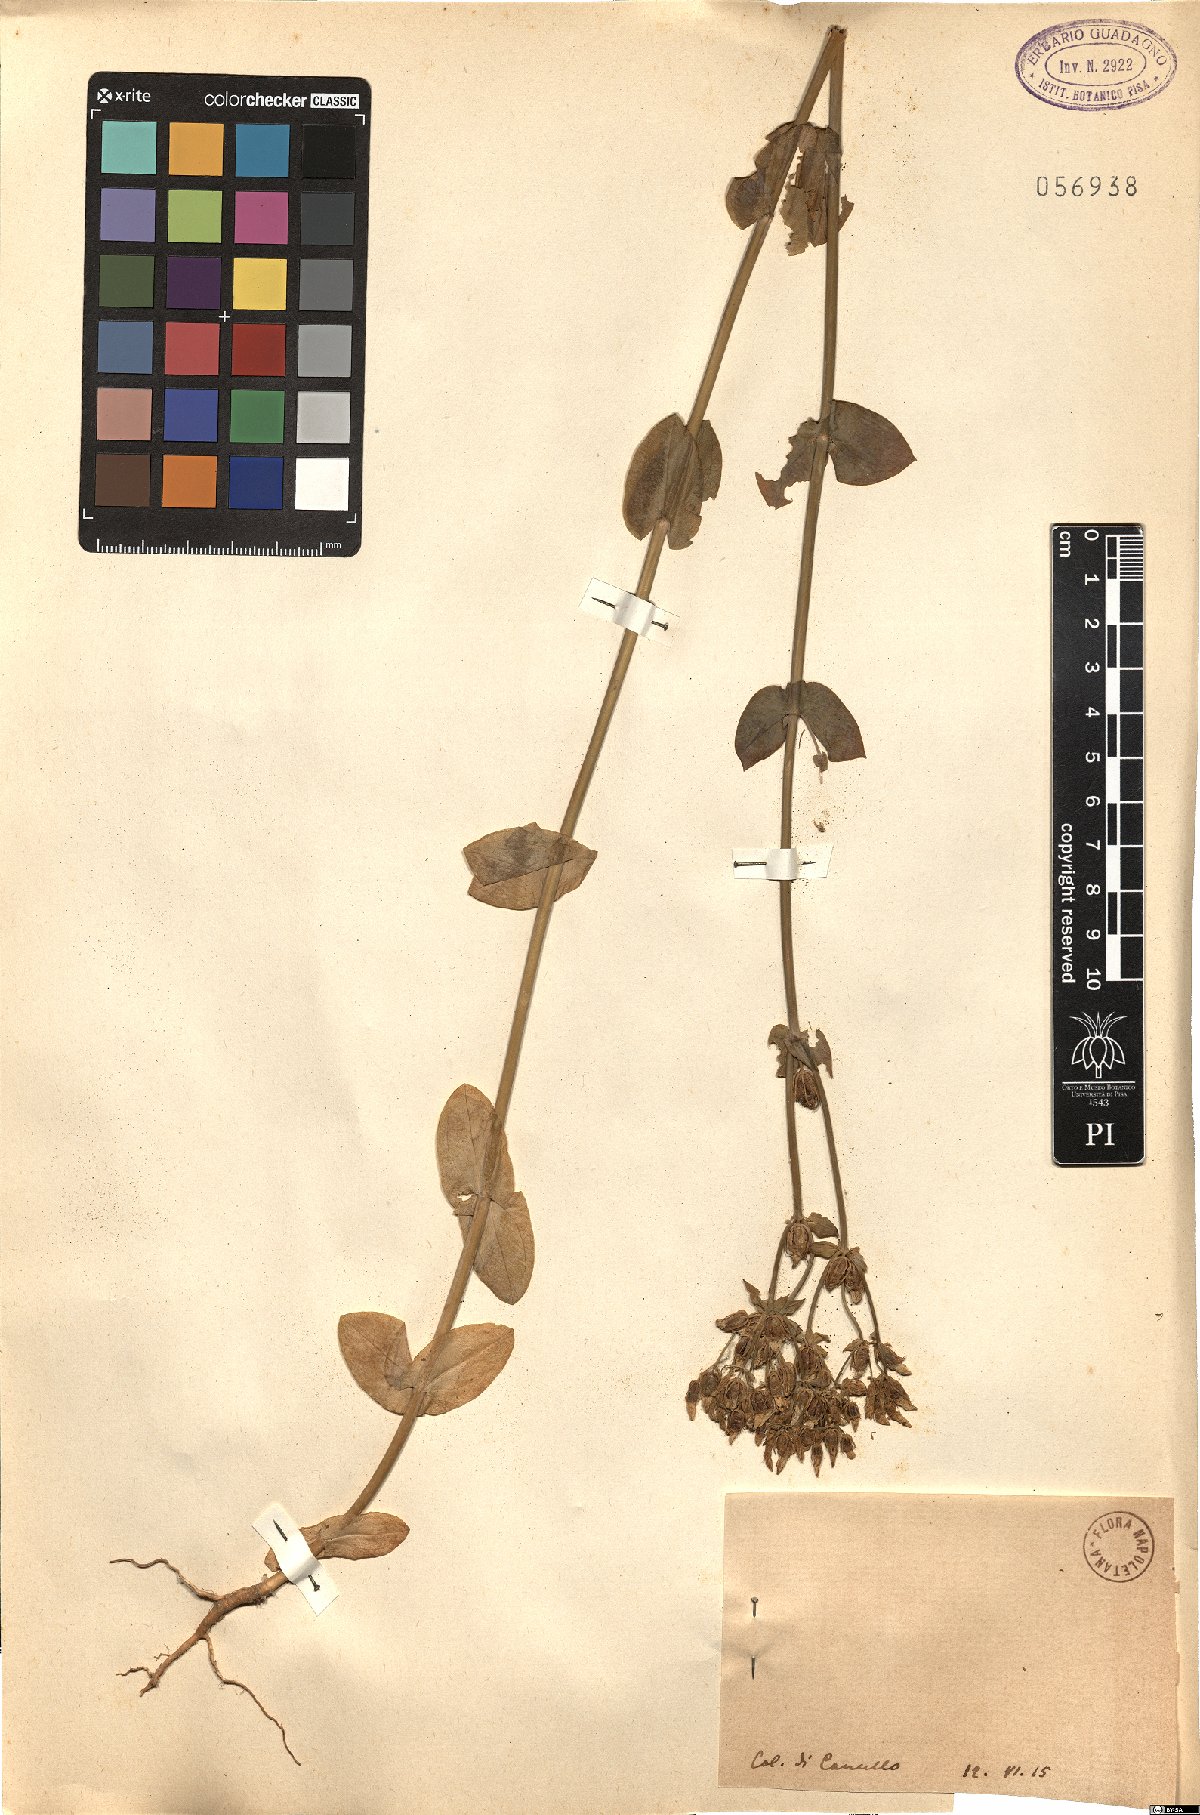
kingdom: Plantae
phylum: Tracheophyta
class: Magnoliopsida
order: Gentianales
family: Gentianaceae
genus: Blackstonia
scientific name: Blackstonia
